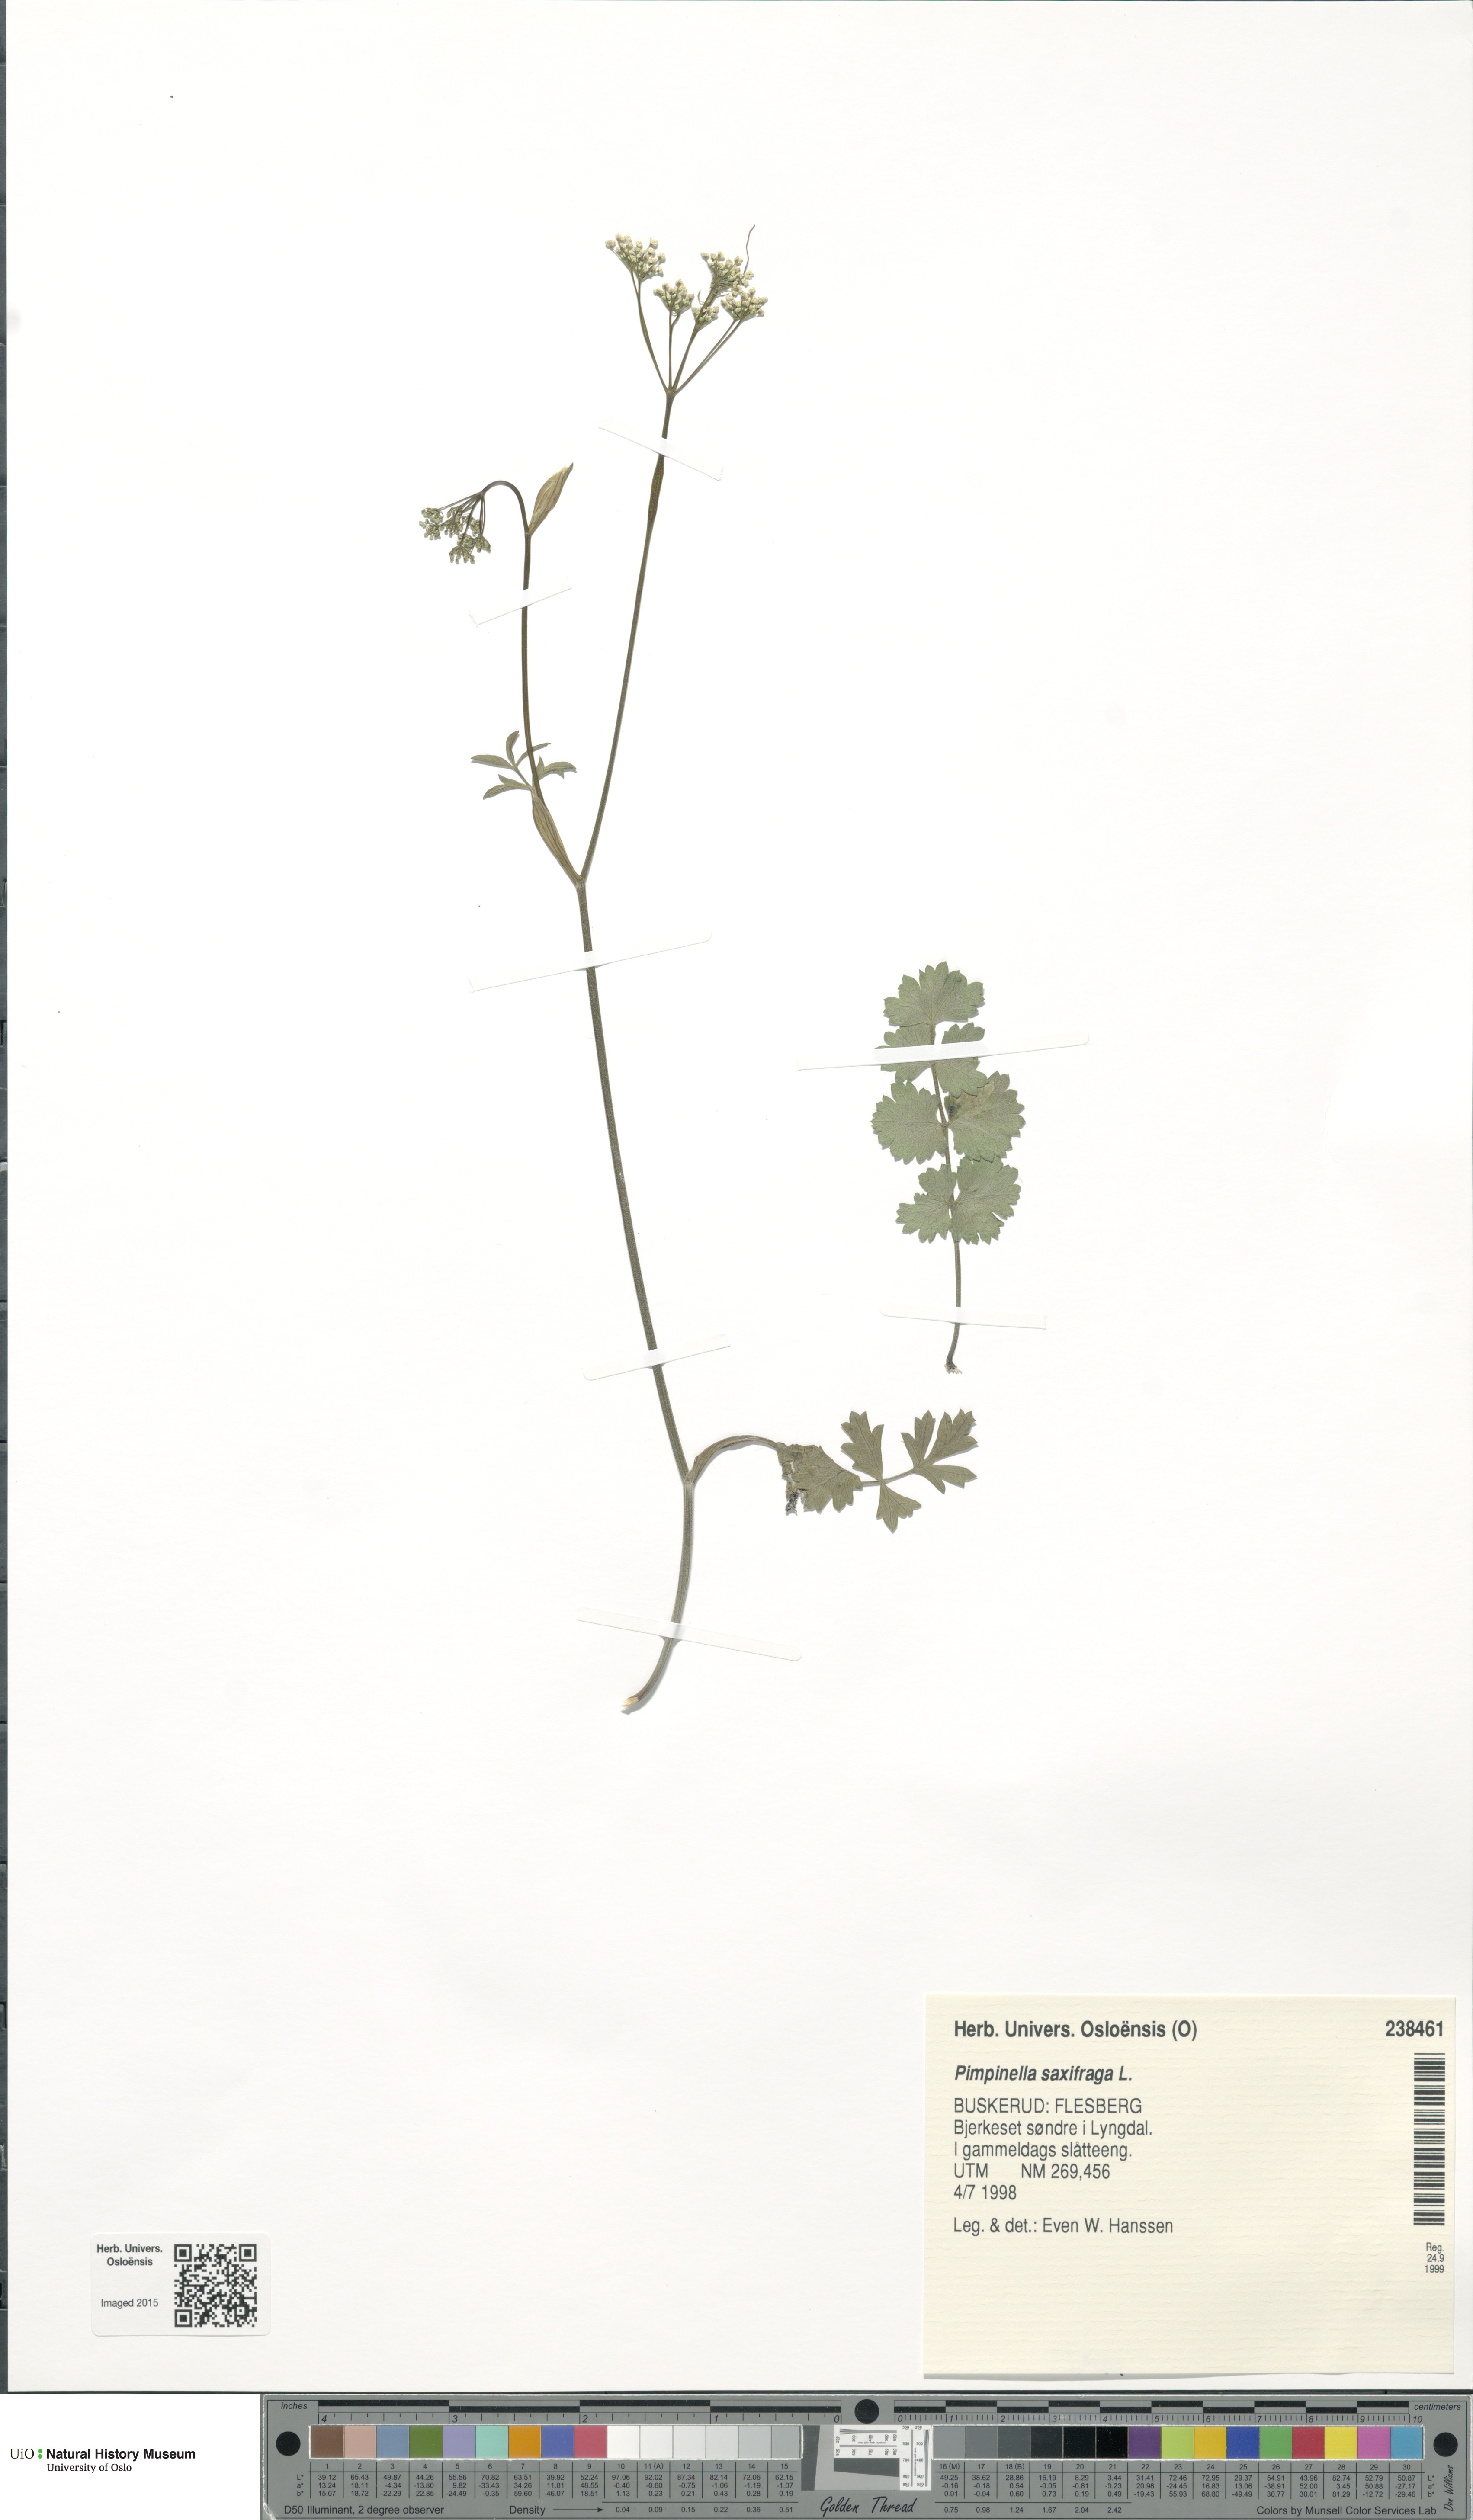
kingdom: Plantae
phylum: Tracheophyta
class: Magnoliopsida
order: Apiales
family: Apiaceae
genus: Pimpinella
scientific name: Pimpinella saxifraga
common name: Burnet-saxifrage
